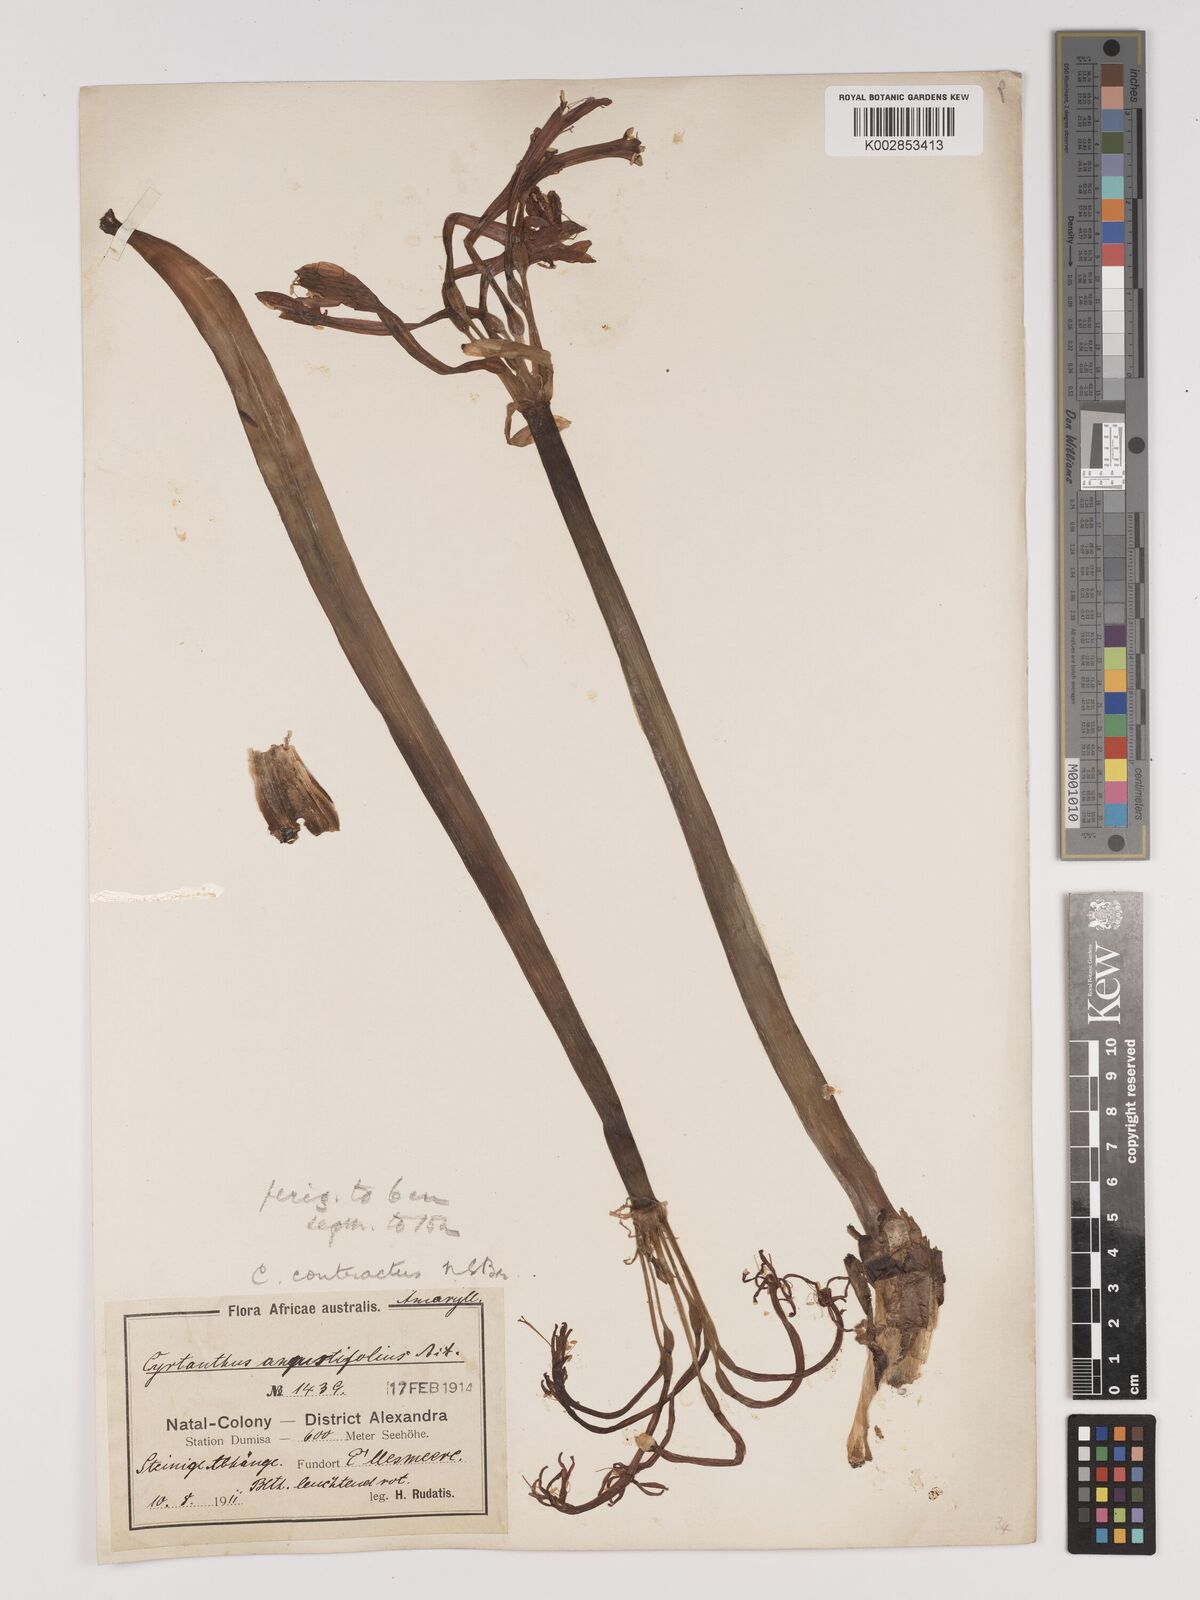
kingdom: Plantae
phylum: Tracheophyta
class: Liliopsida
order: Asparagales
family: Amaryllidaceae
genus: Cyrtanthus
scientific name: Cyrtanthus contractus
